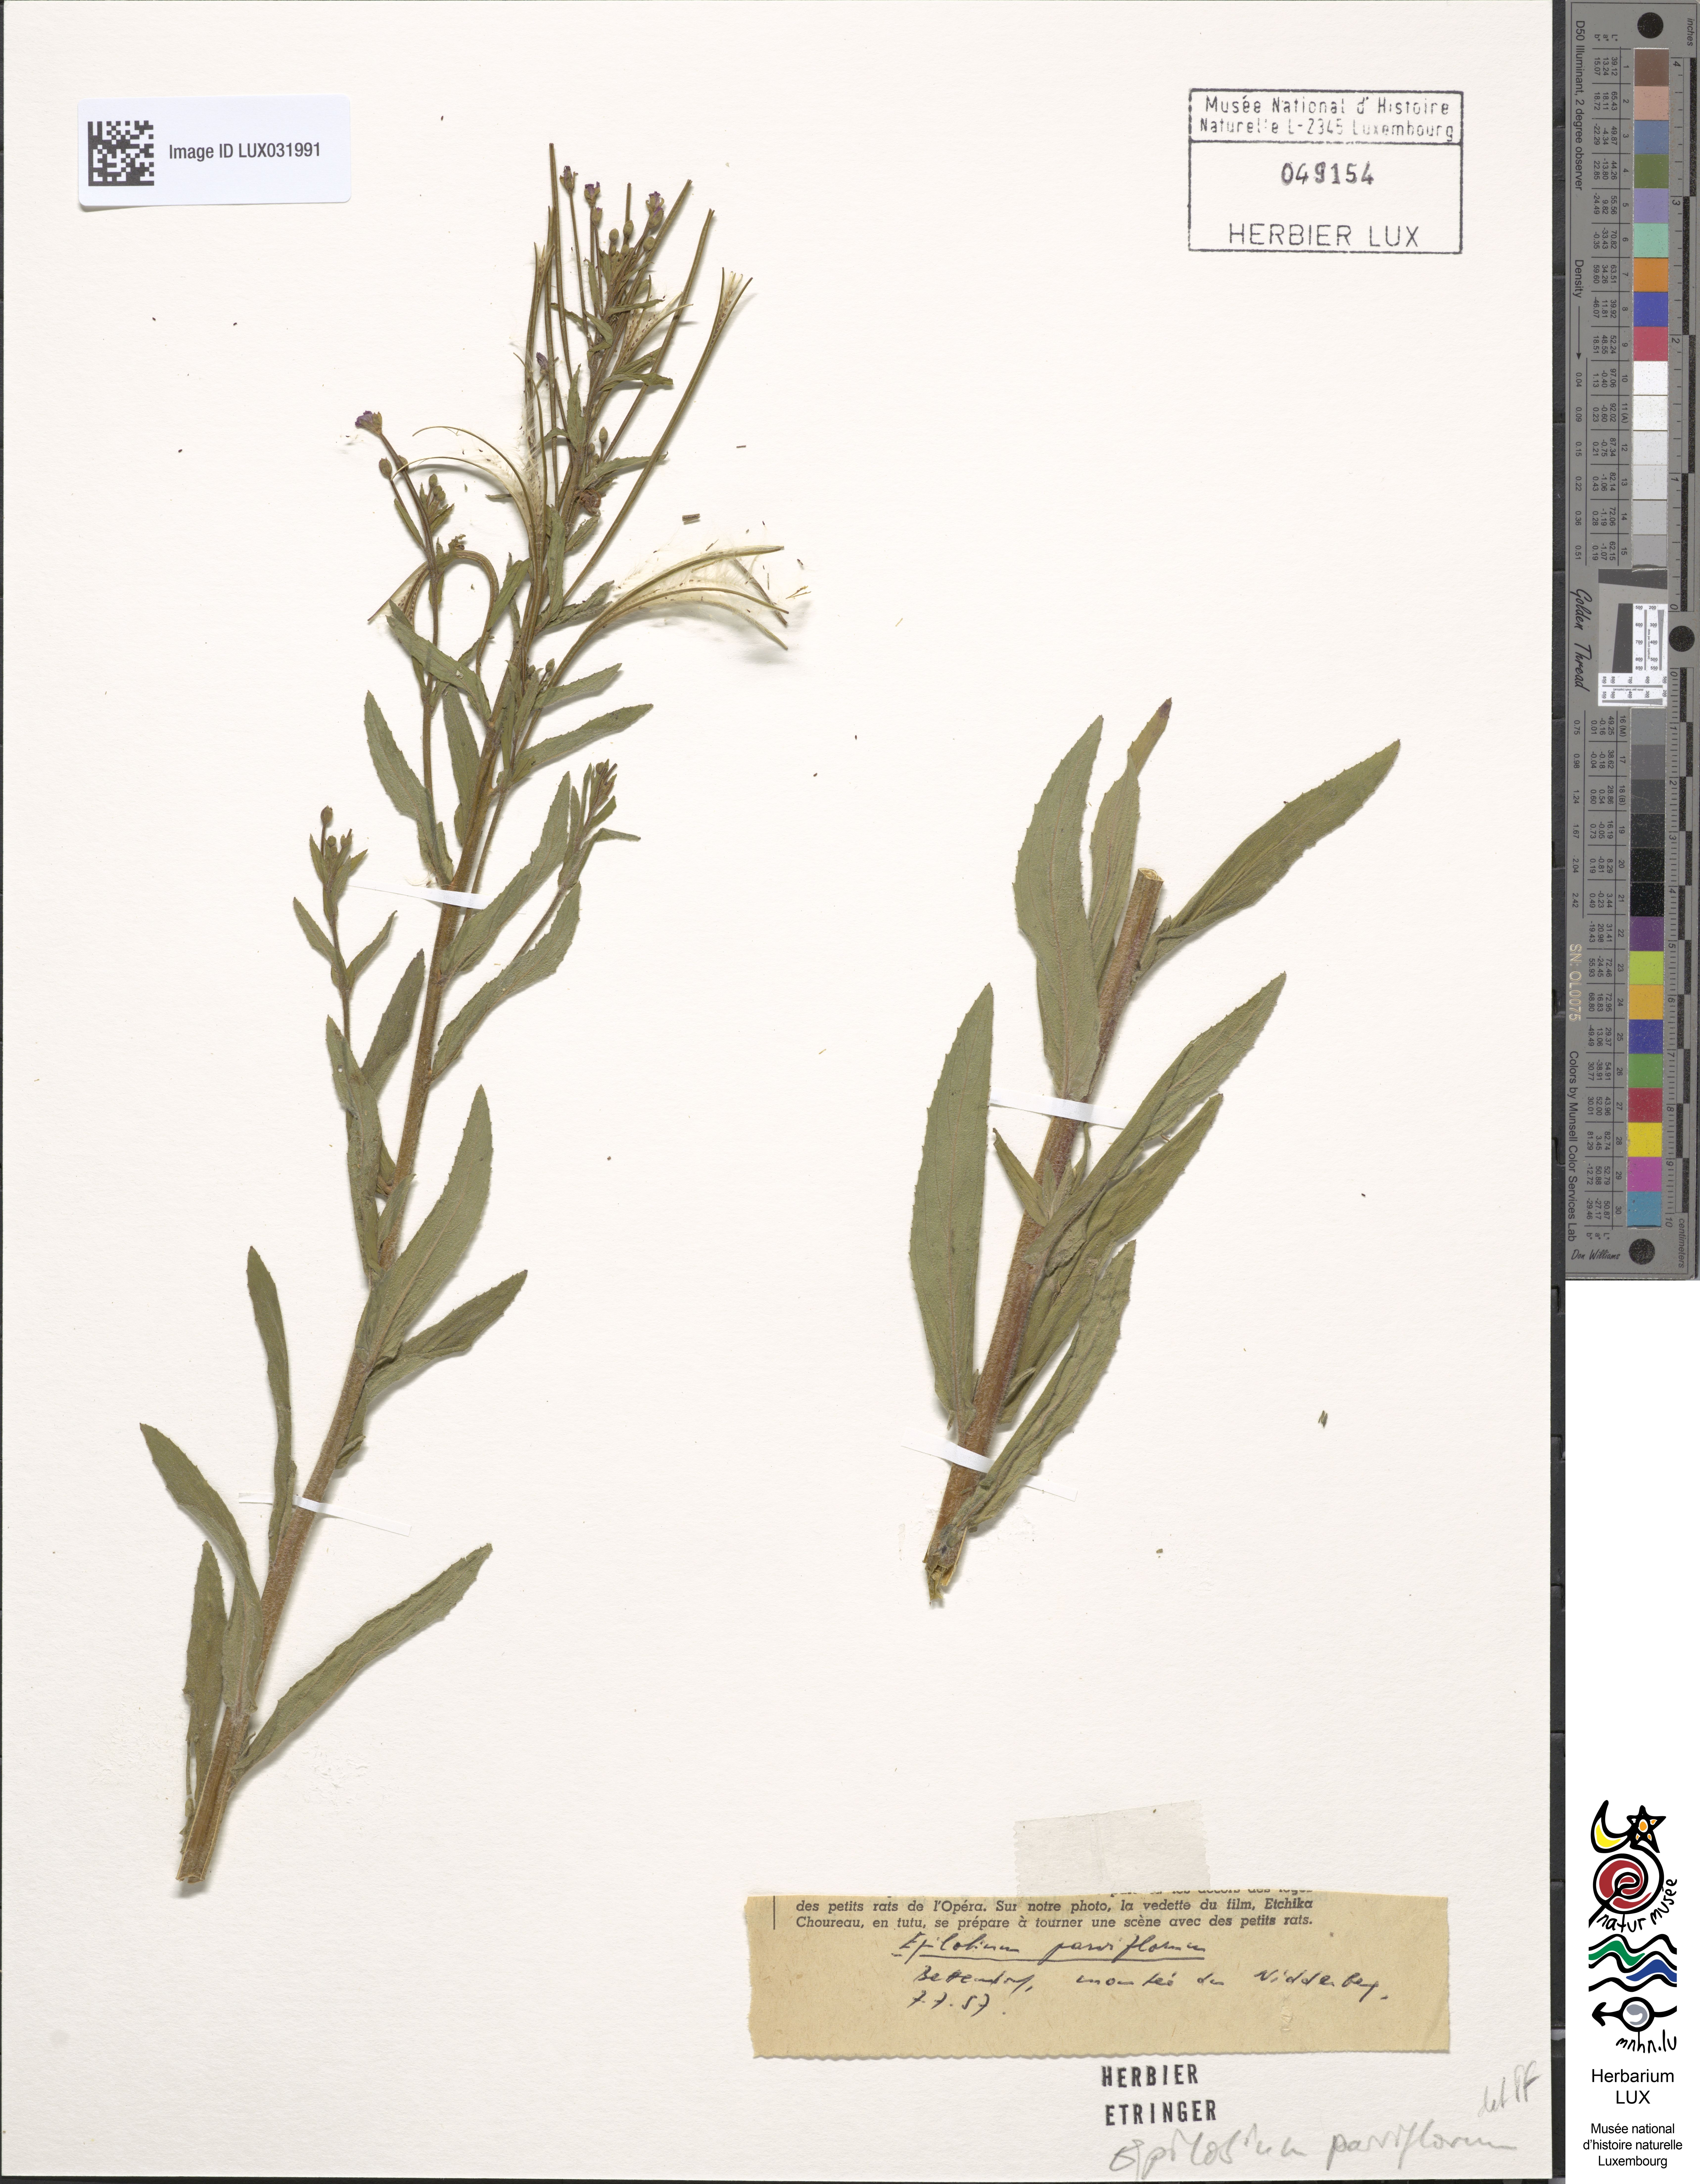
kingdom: Plantae
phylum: Tracheophyta
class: Magnoliopsida
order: Myrtales
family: Onagraceae
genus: Epilobium
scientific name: Epilobium parviflorum
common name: Hoary willowherb
